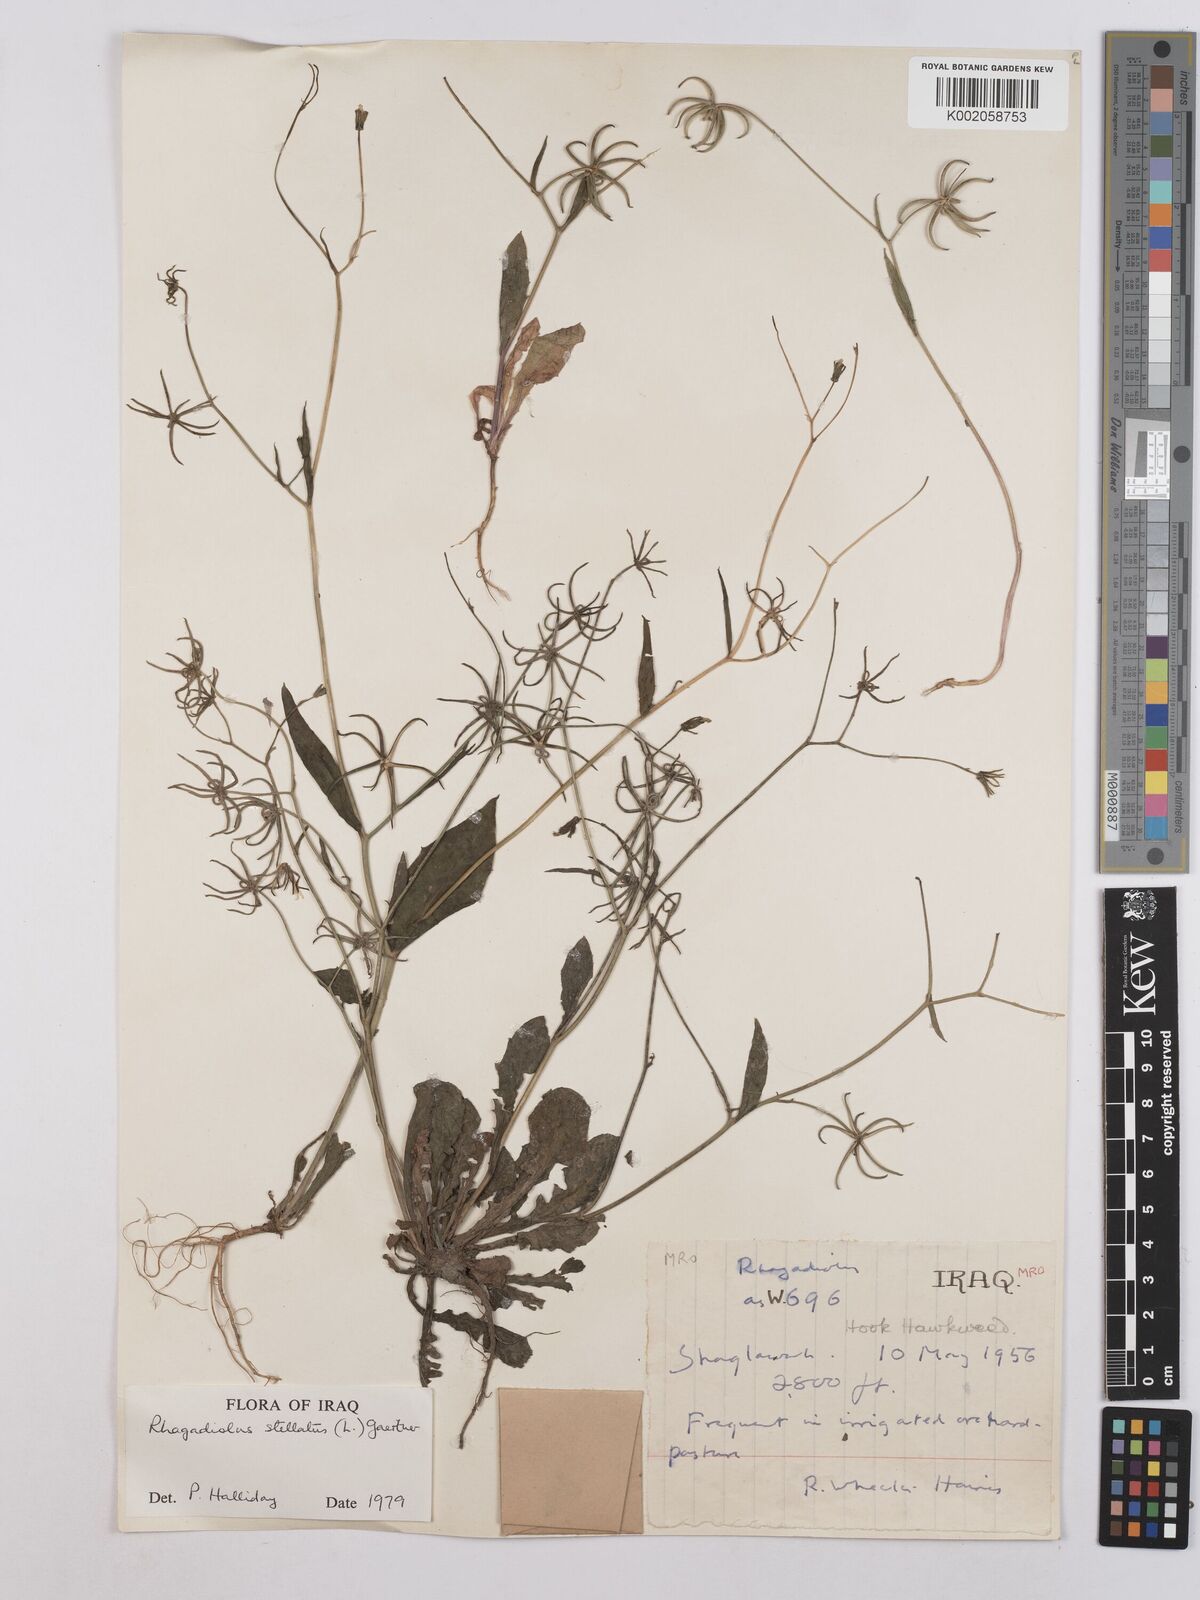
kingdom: Plantae
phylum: Tracheophyta
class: Magnoliopsida
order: Asterales
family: Asteraceae
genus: Rhagadiolus
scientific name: Rhagadiolus stellatus
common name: Star hawkbit
